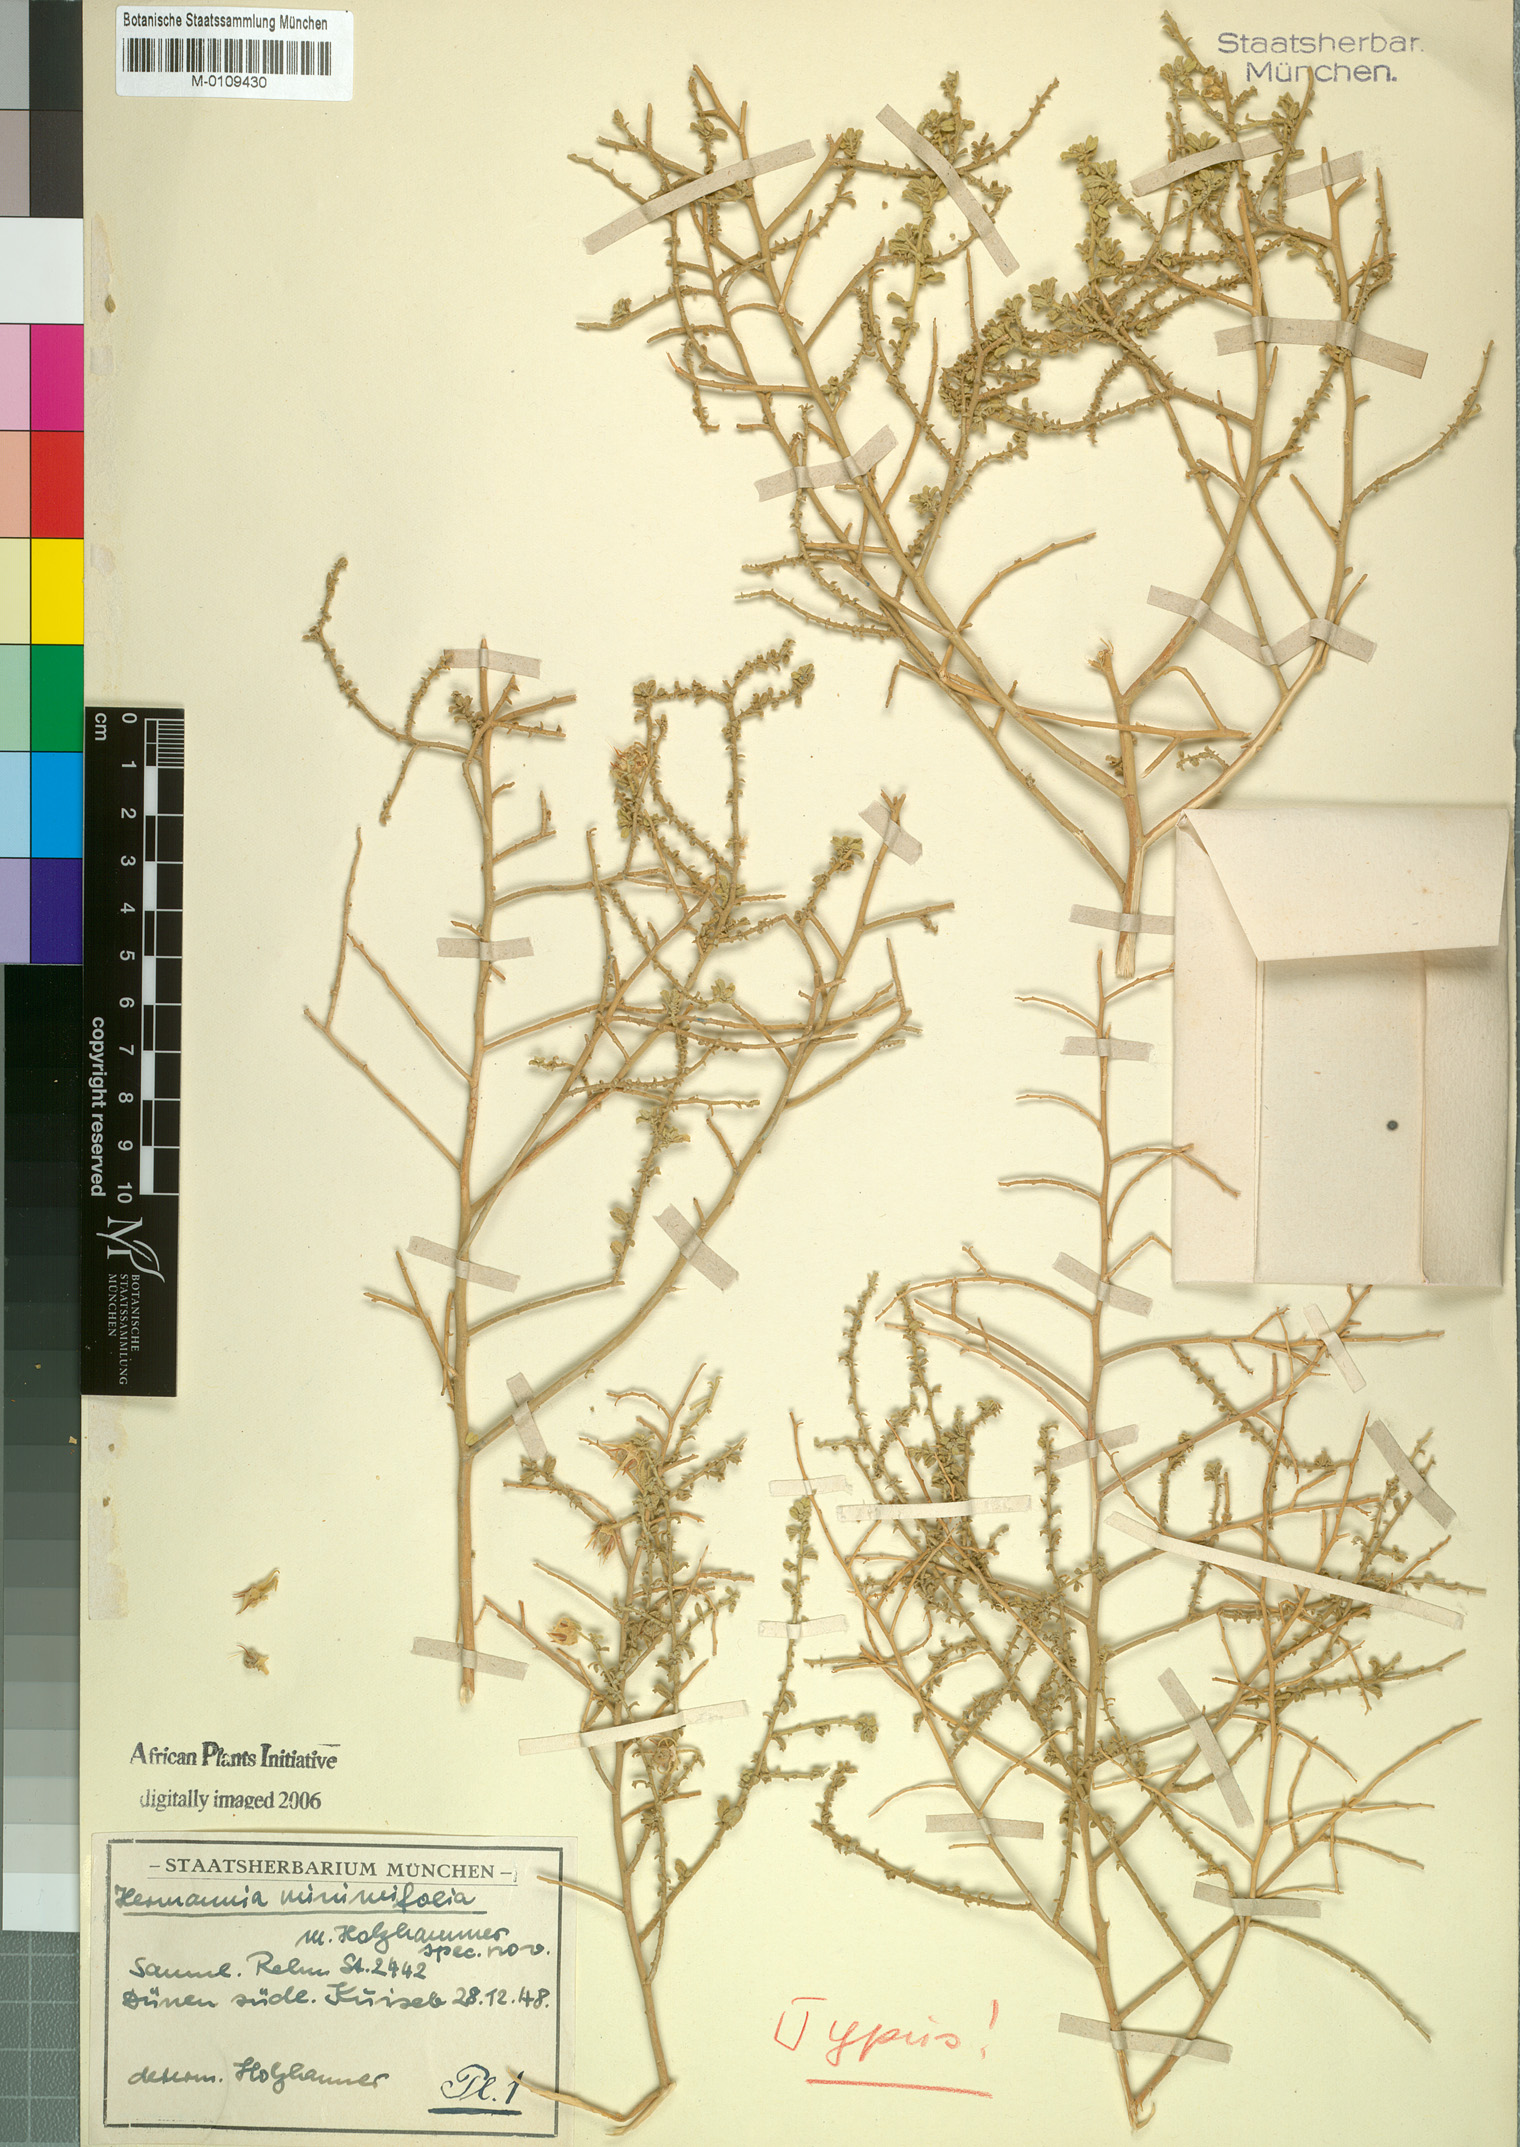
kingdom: Plantae
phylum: Tracheophyta
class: Magnoliopsida
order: Malvales
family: Malvaceae
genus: Hermannia
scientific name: Hermannia minimifolia
